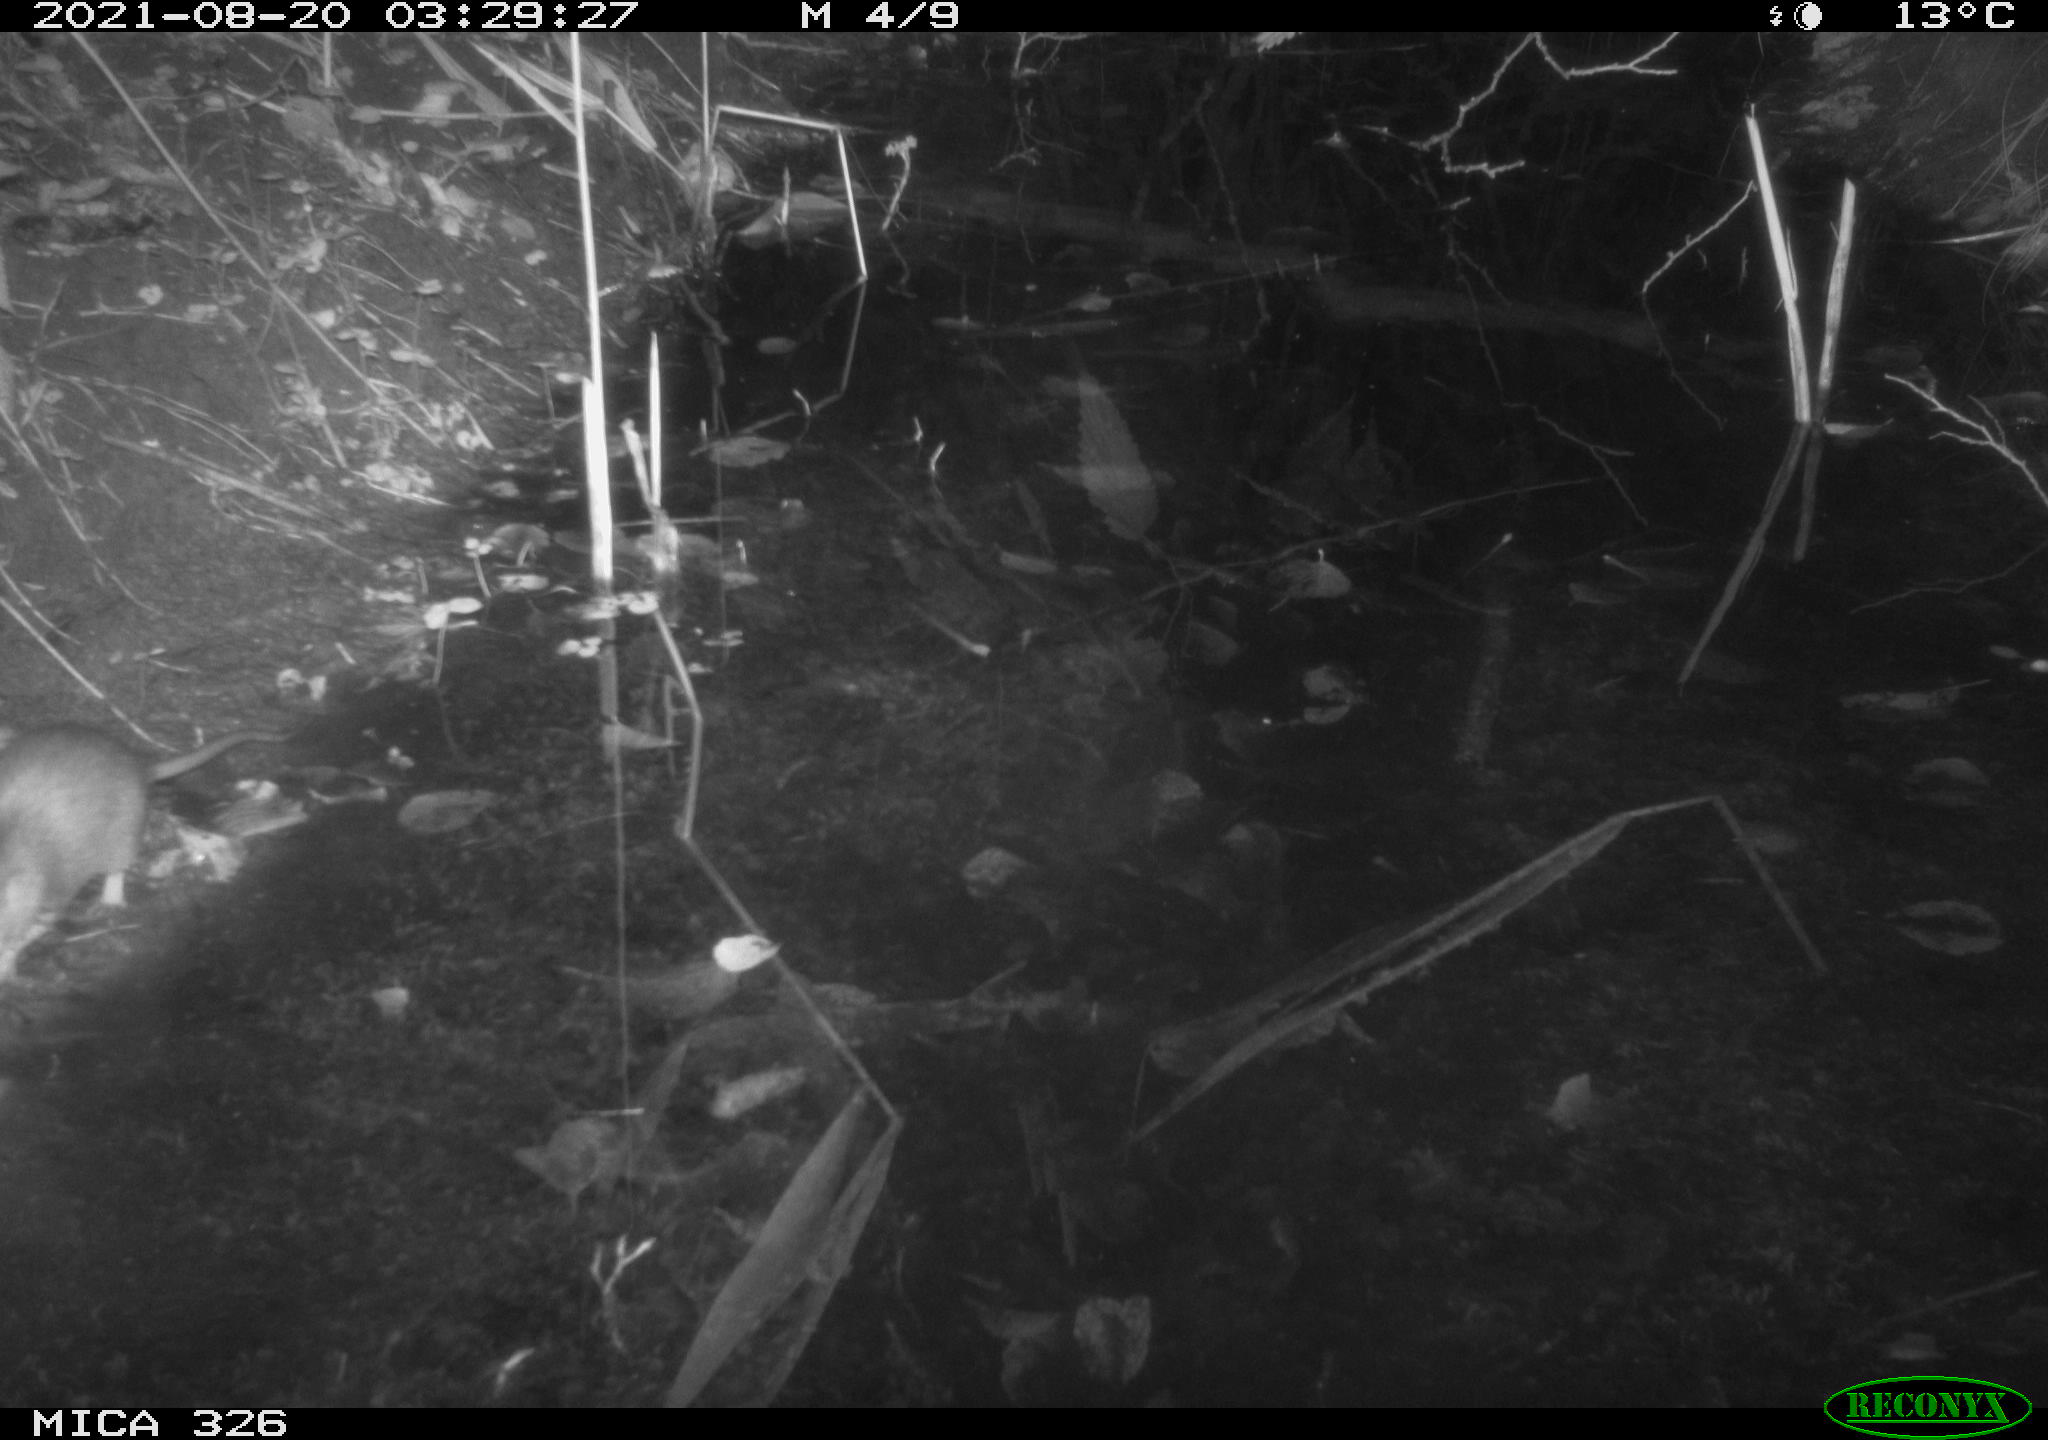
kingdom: Animalia
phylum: Chordata
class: Mammalia
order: Rodentia
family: Muridae
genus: Rattus
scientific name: Rattus norvegicus
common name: Brown rat
